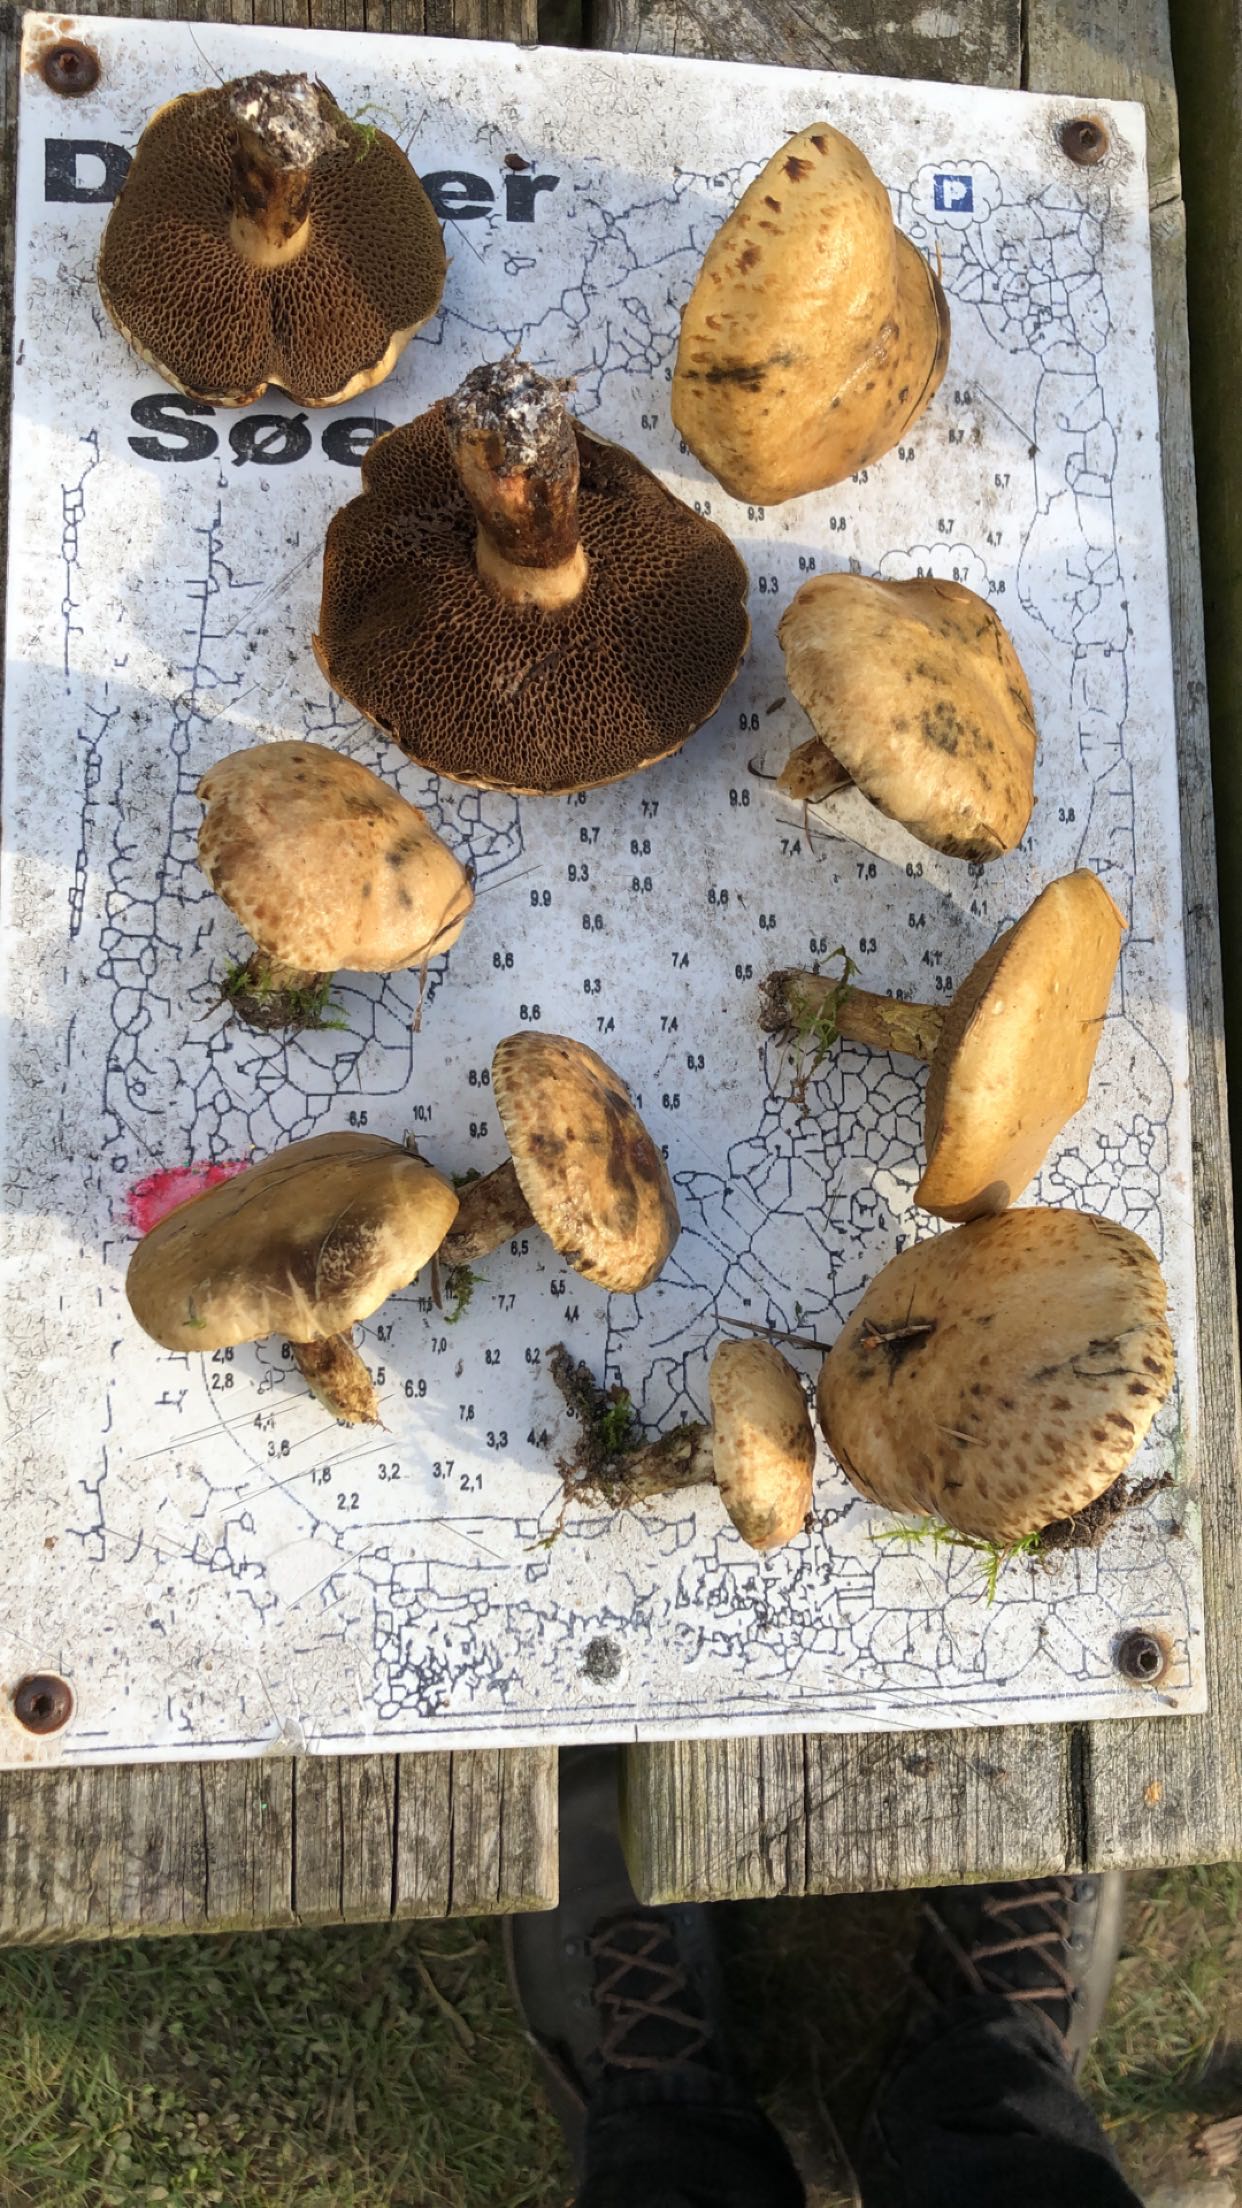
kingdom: Fungi
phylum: Basidiomycota
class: Agaricomycetes
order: Boletales
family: Suillaceae
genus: Suillus
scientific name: Suillus viscidus
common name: olivengrå slimrørhat
